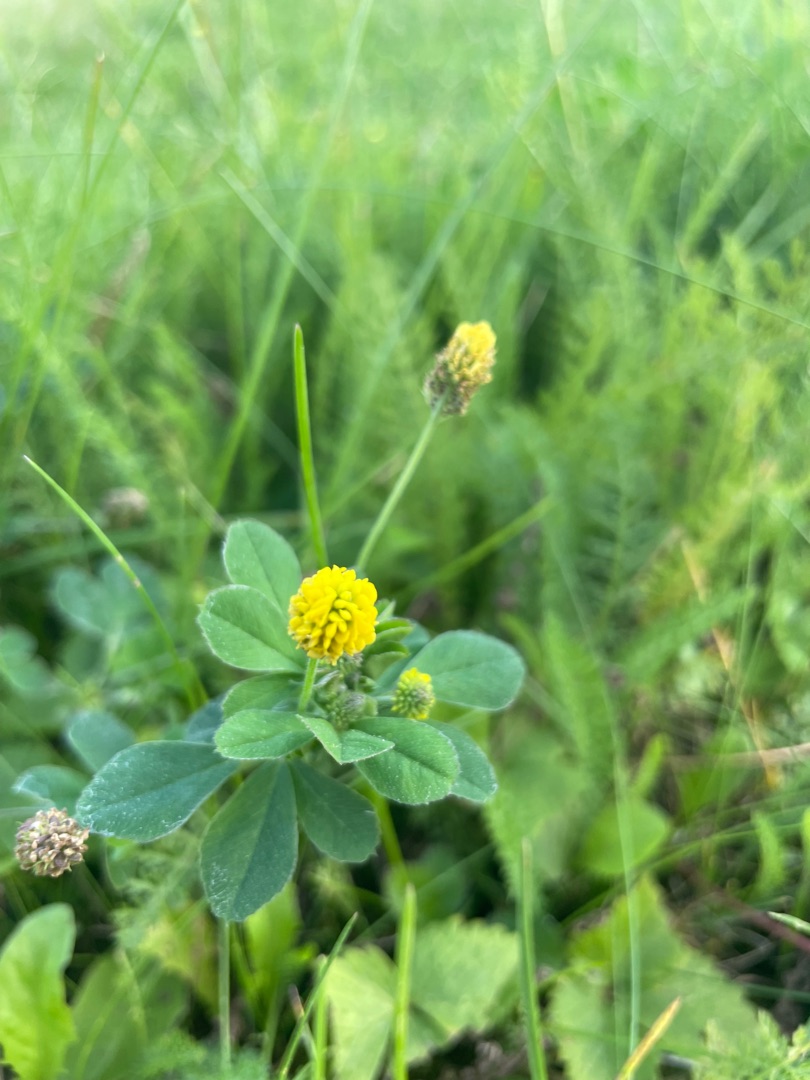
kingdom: Plantae
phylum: Tracheophyta
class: Magnoliopsida
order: Fabales
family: Fabaceae
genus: Medicago
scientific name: Medicago lupulina
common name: Humle-sneglebælg
